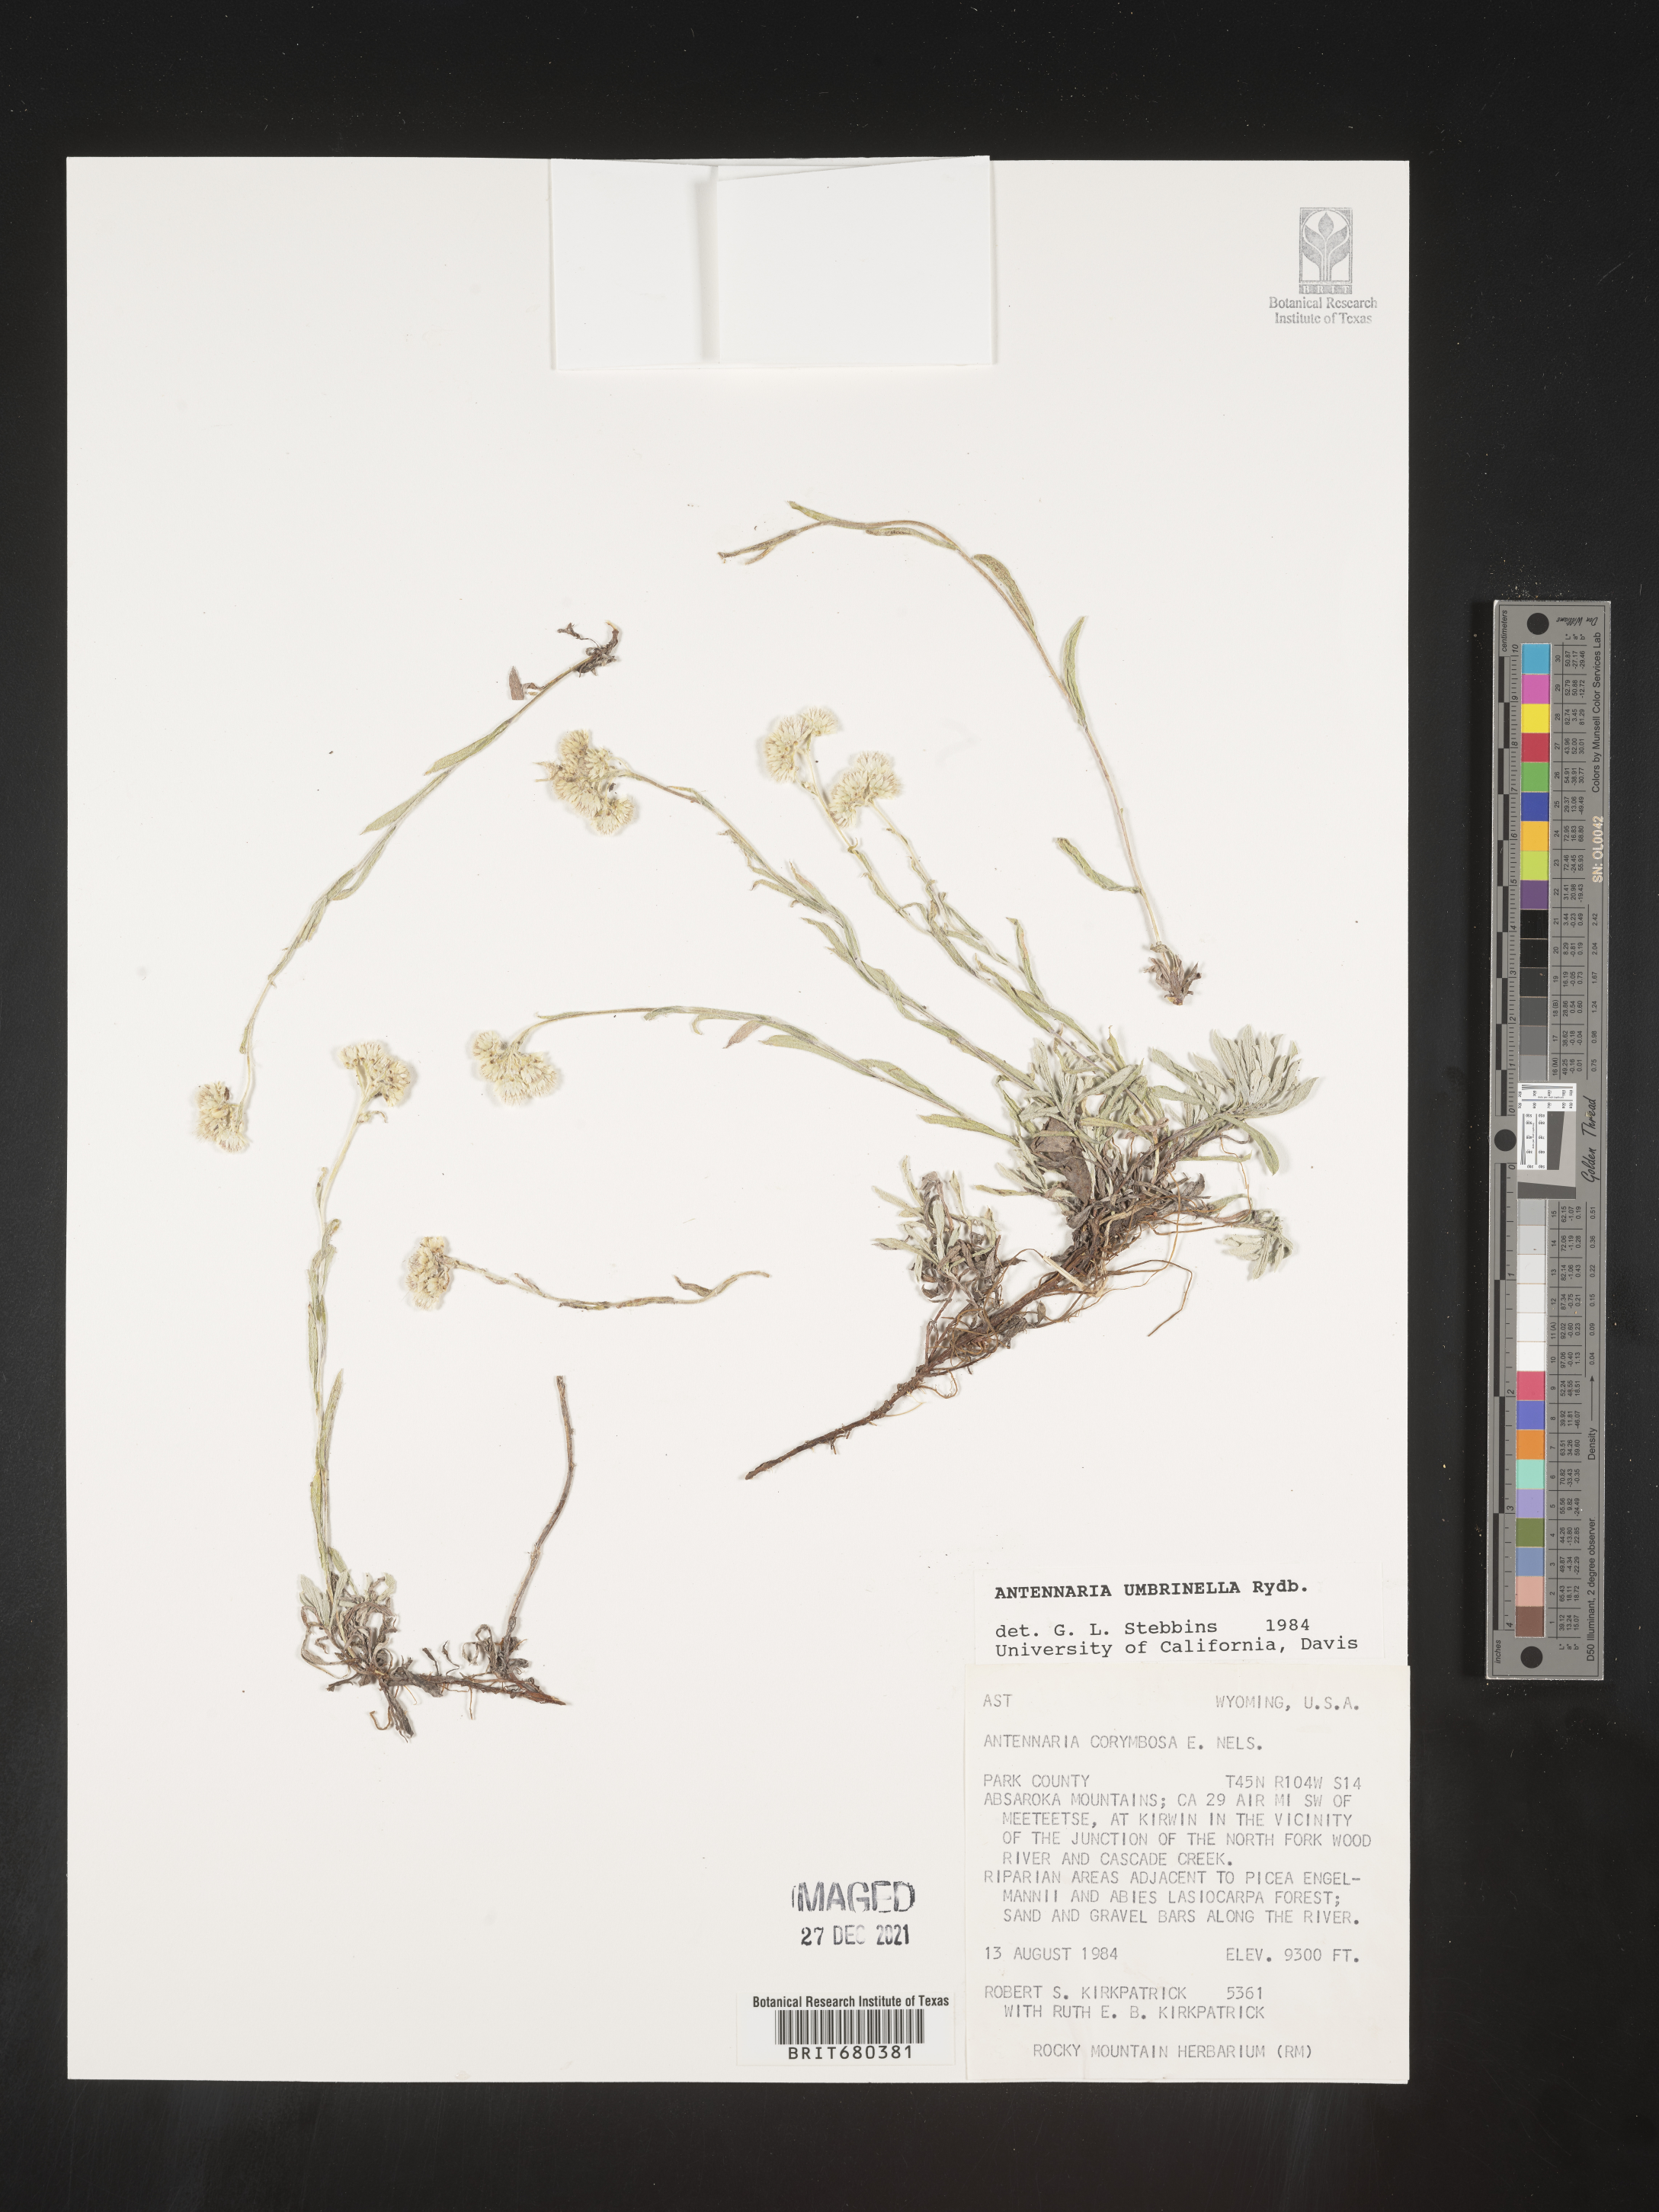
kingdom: Plantae
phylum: Tracheophyta
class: Magnoliopsida
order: Asterales
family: Asteraceae
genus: Antennaria
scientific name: Antennaria umbrinella
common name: Brown pussytoes
